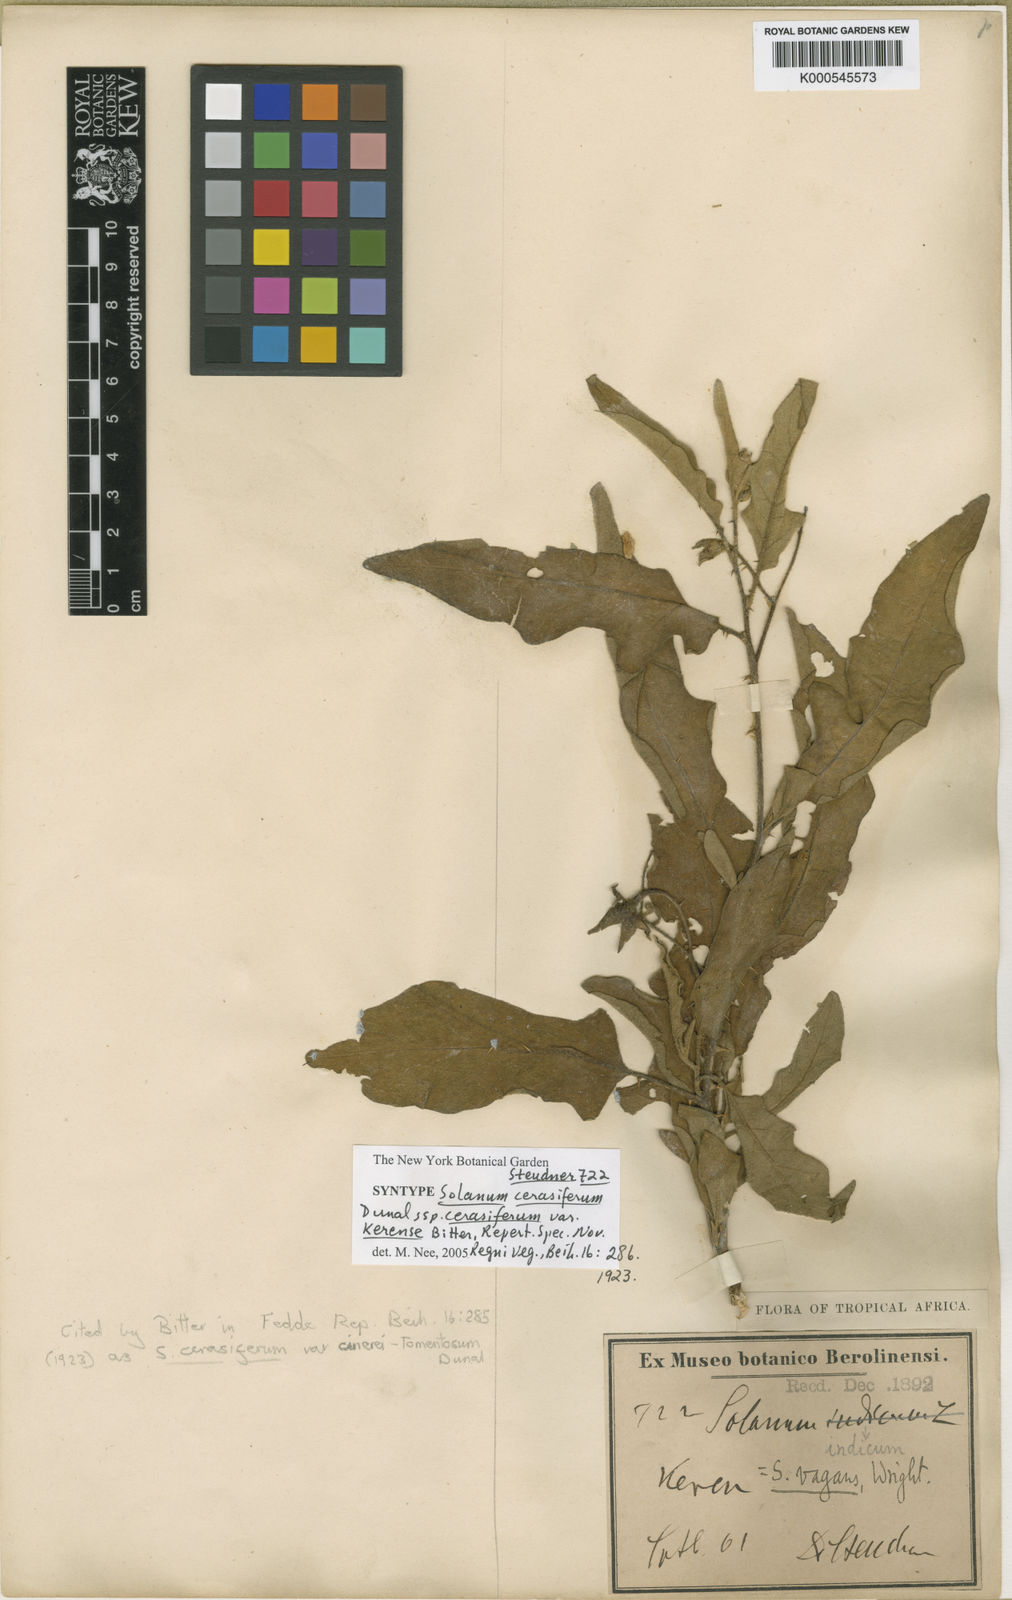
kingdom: Plantae
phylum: Tracheophyta
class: Magnoliopsida
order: Solanales
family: Solanaceae
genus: Solanum
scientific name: Solanum cerasiferum
